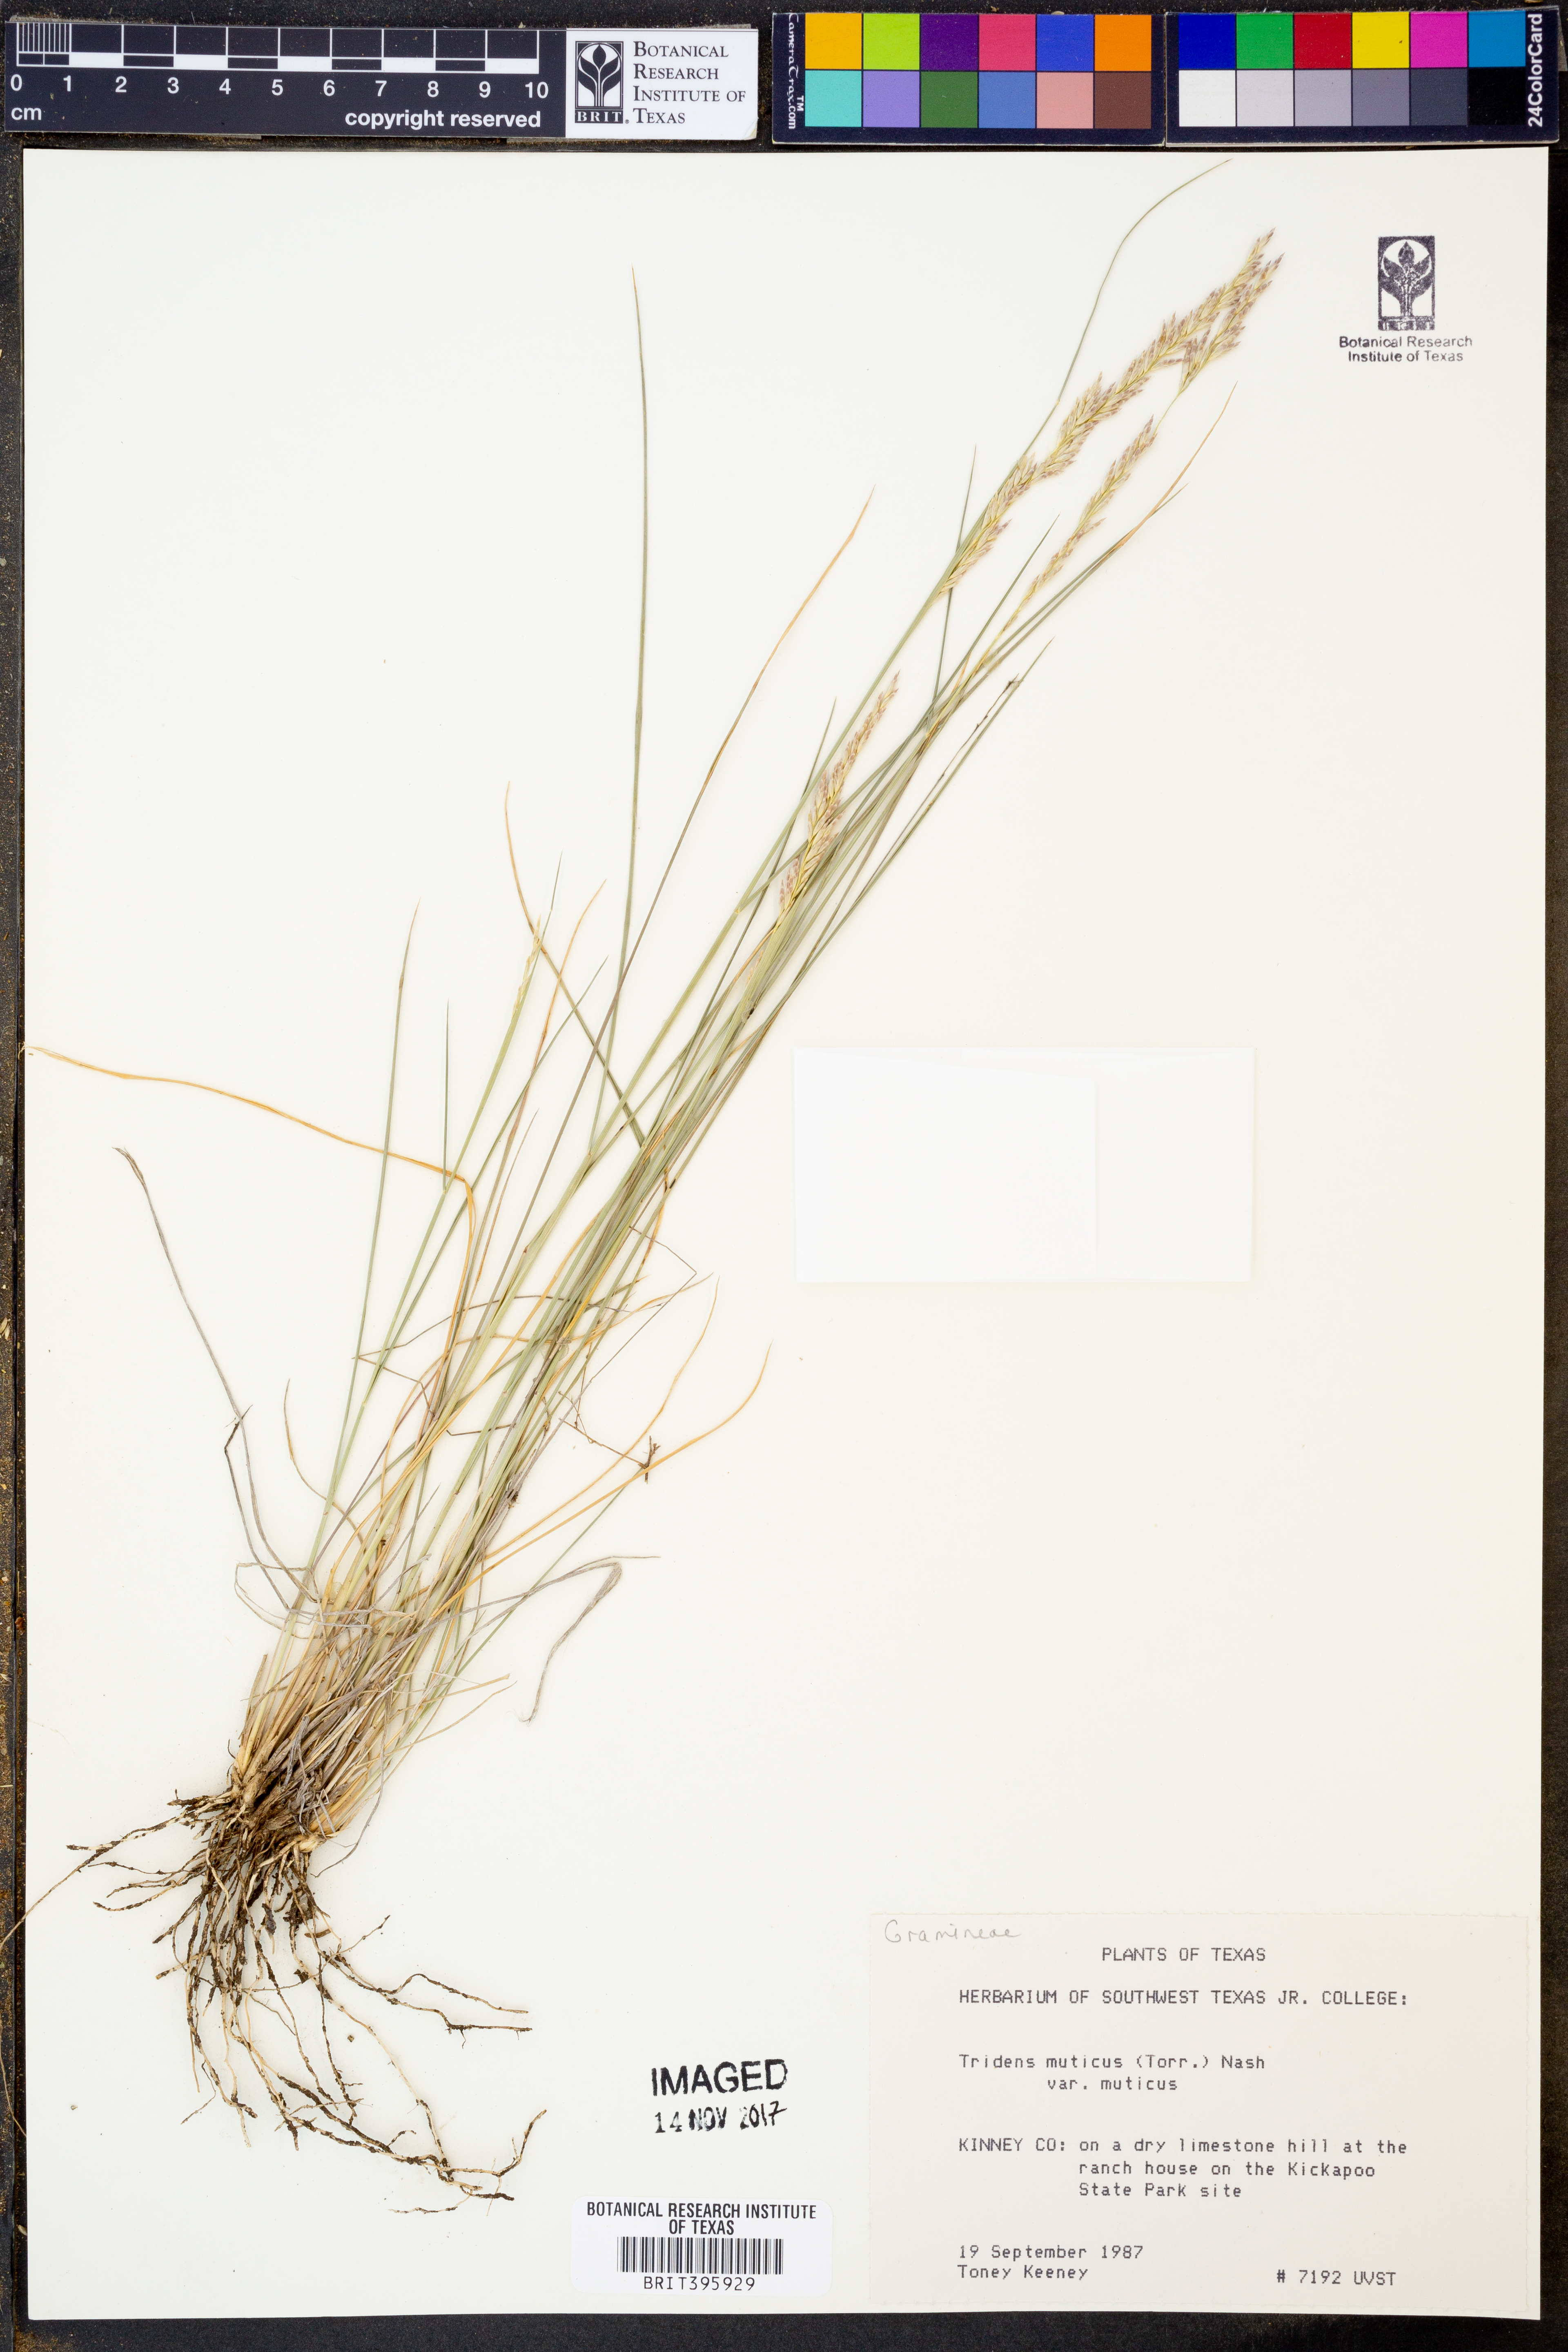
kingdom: Plantae
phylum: Tracheophyta
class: Liliopsida
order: Poales
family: Poaceae
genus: Tridentopsis
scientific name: Tridentopsis mutica
